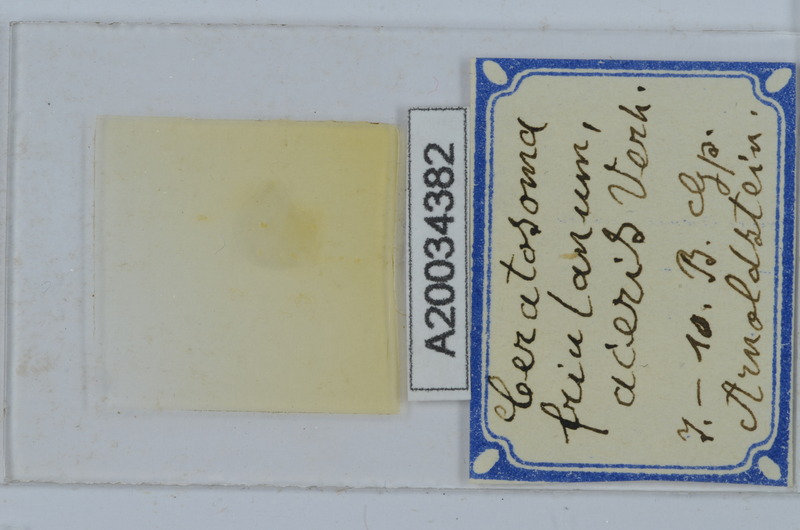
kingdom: Animalia
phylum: Arthropoda
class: Diplopoda
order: Chordeumatida
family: Craspedosomatidae
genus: Euceratosoma
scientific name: Euceratosoma friulanum
